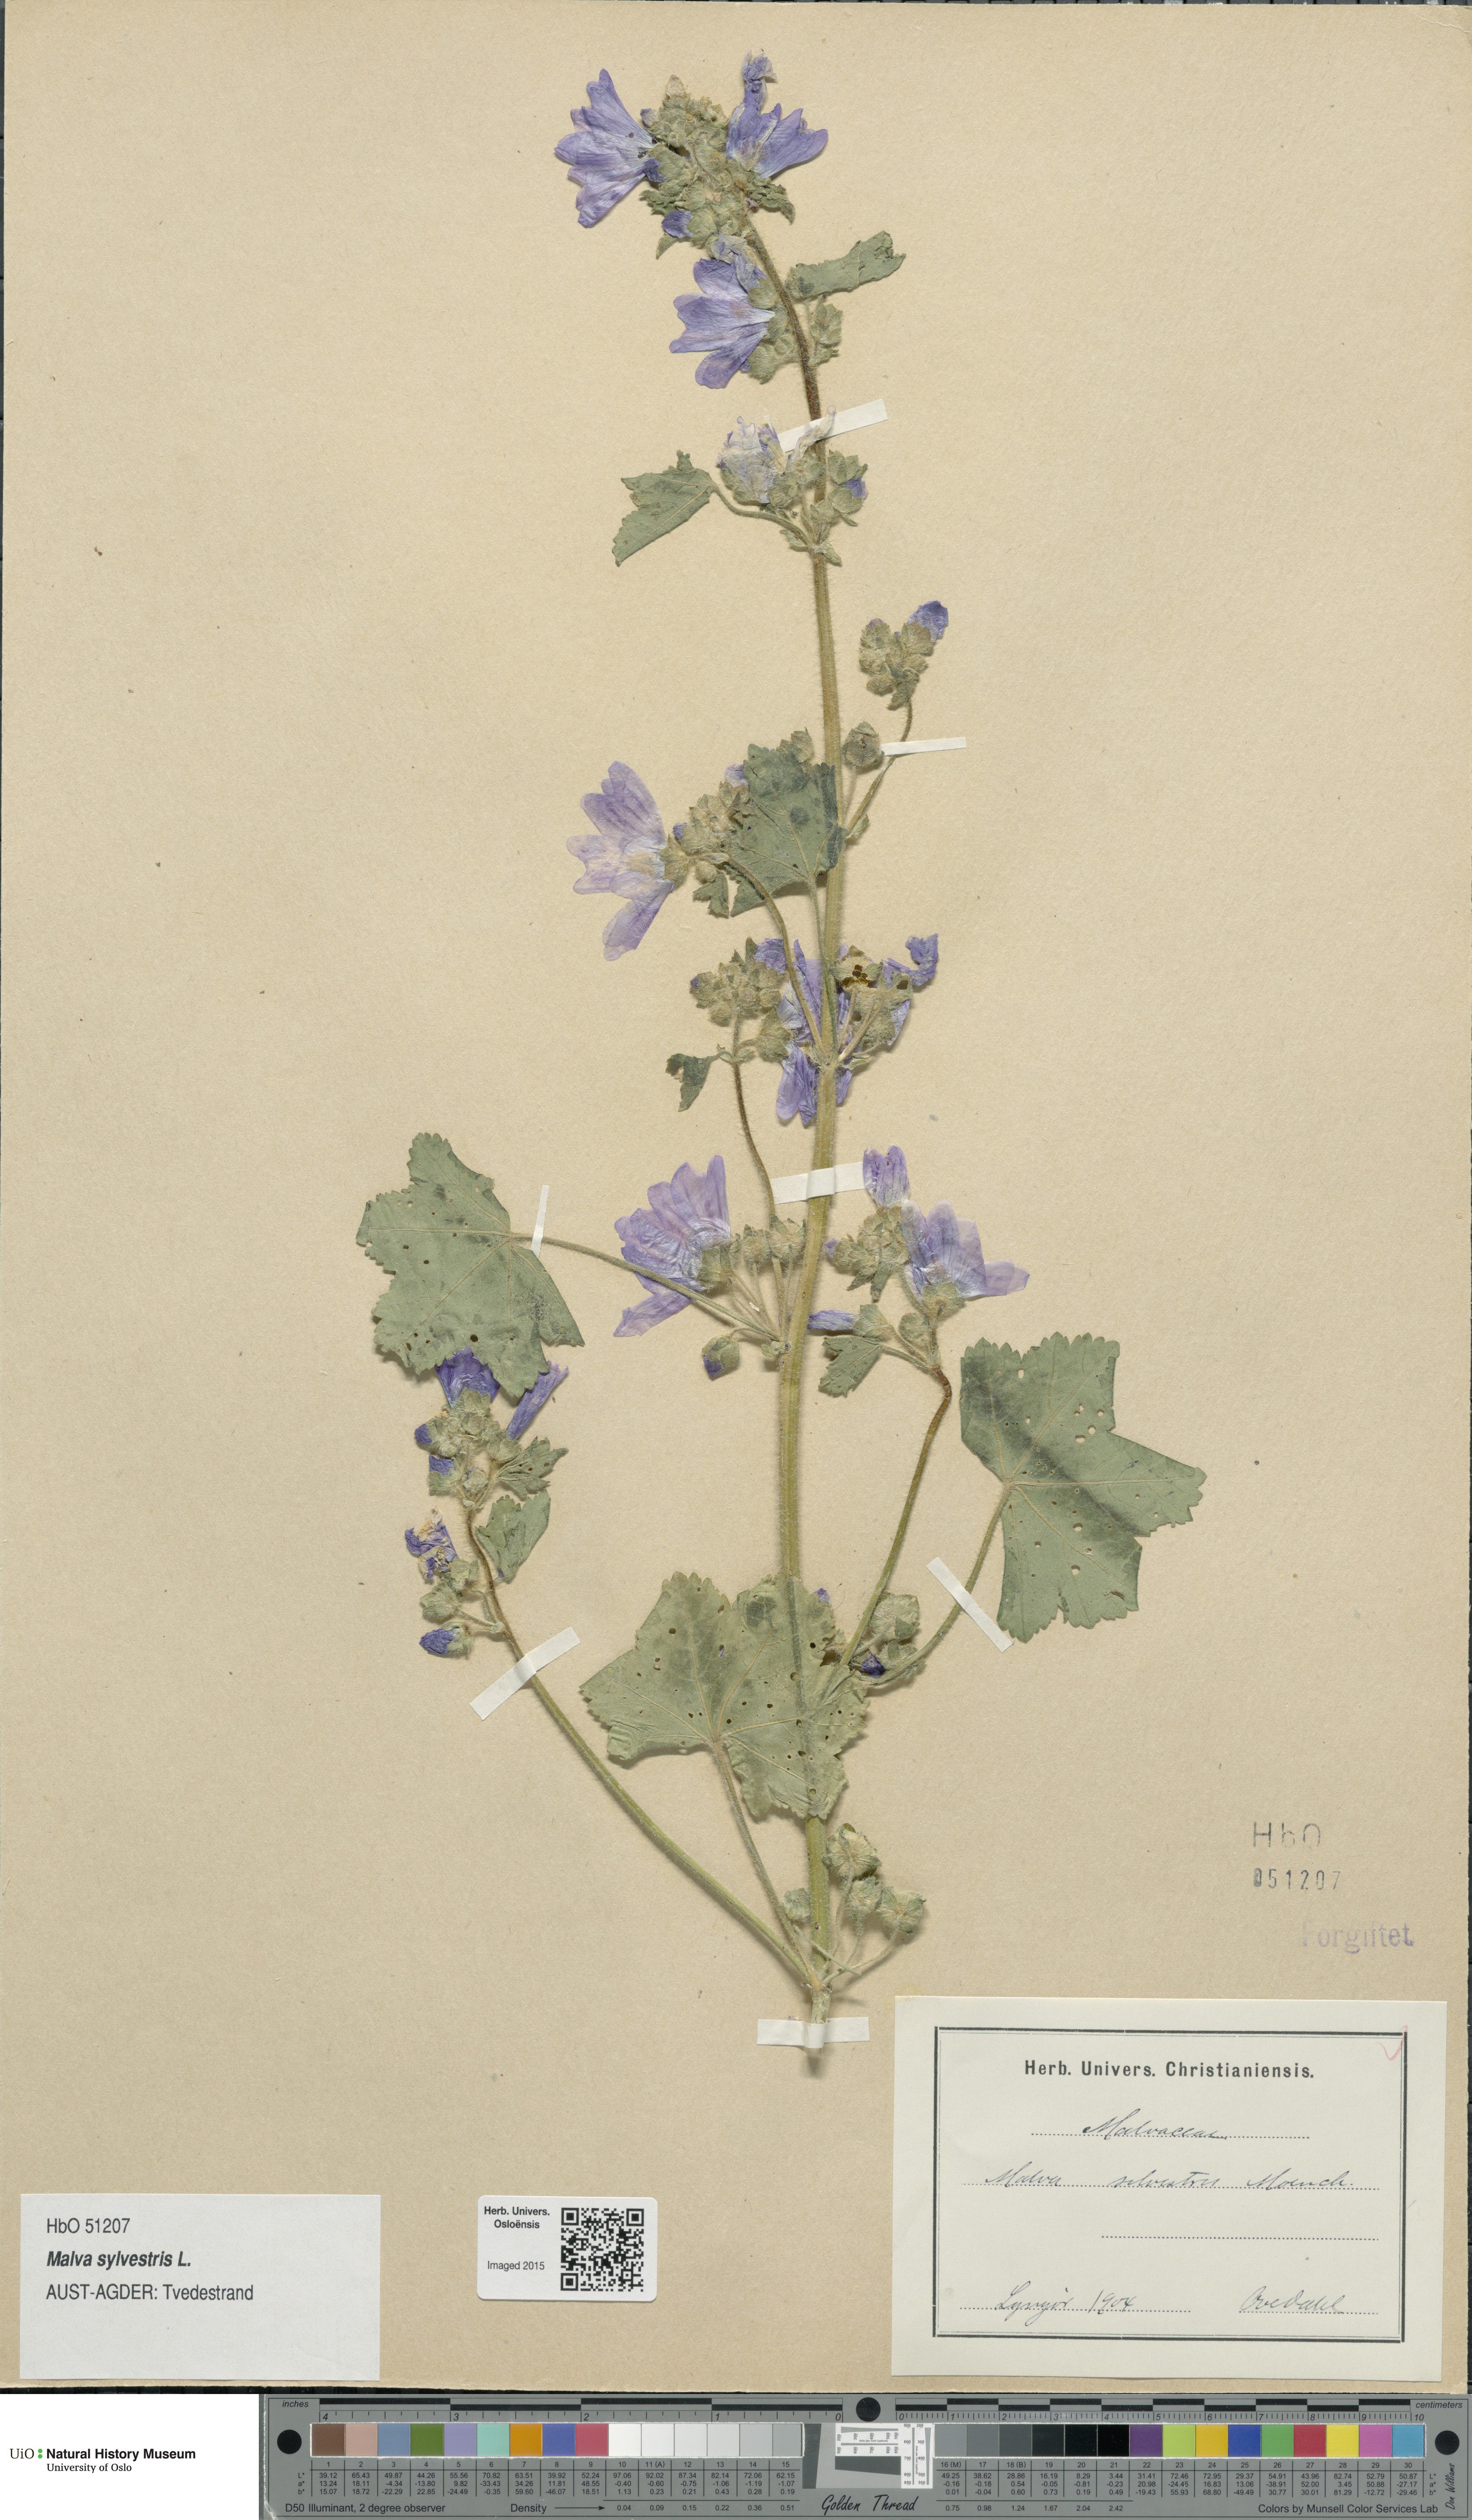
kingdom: Plantae
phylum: Tracheophyta
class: Magnoliopsida
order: Malvales
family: Malvaceae
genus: Malva
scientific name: Malva sylvestris
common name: Common mallow
